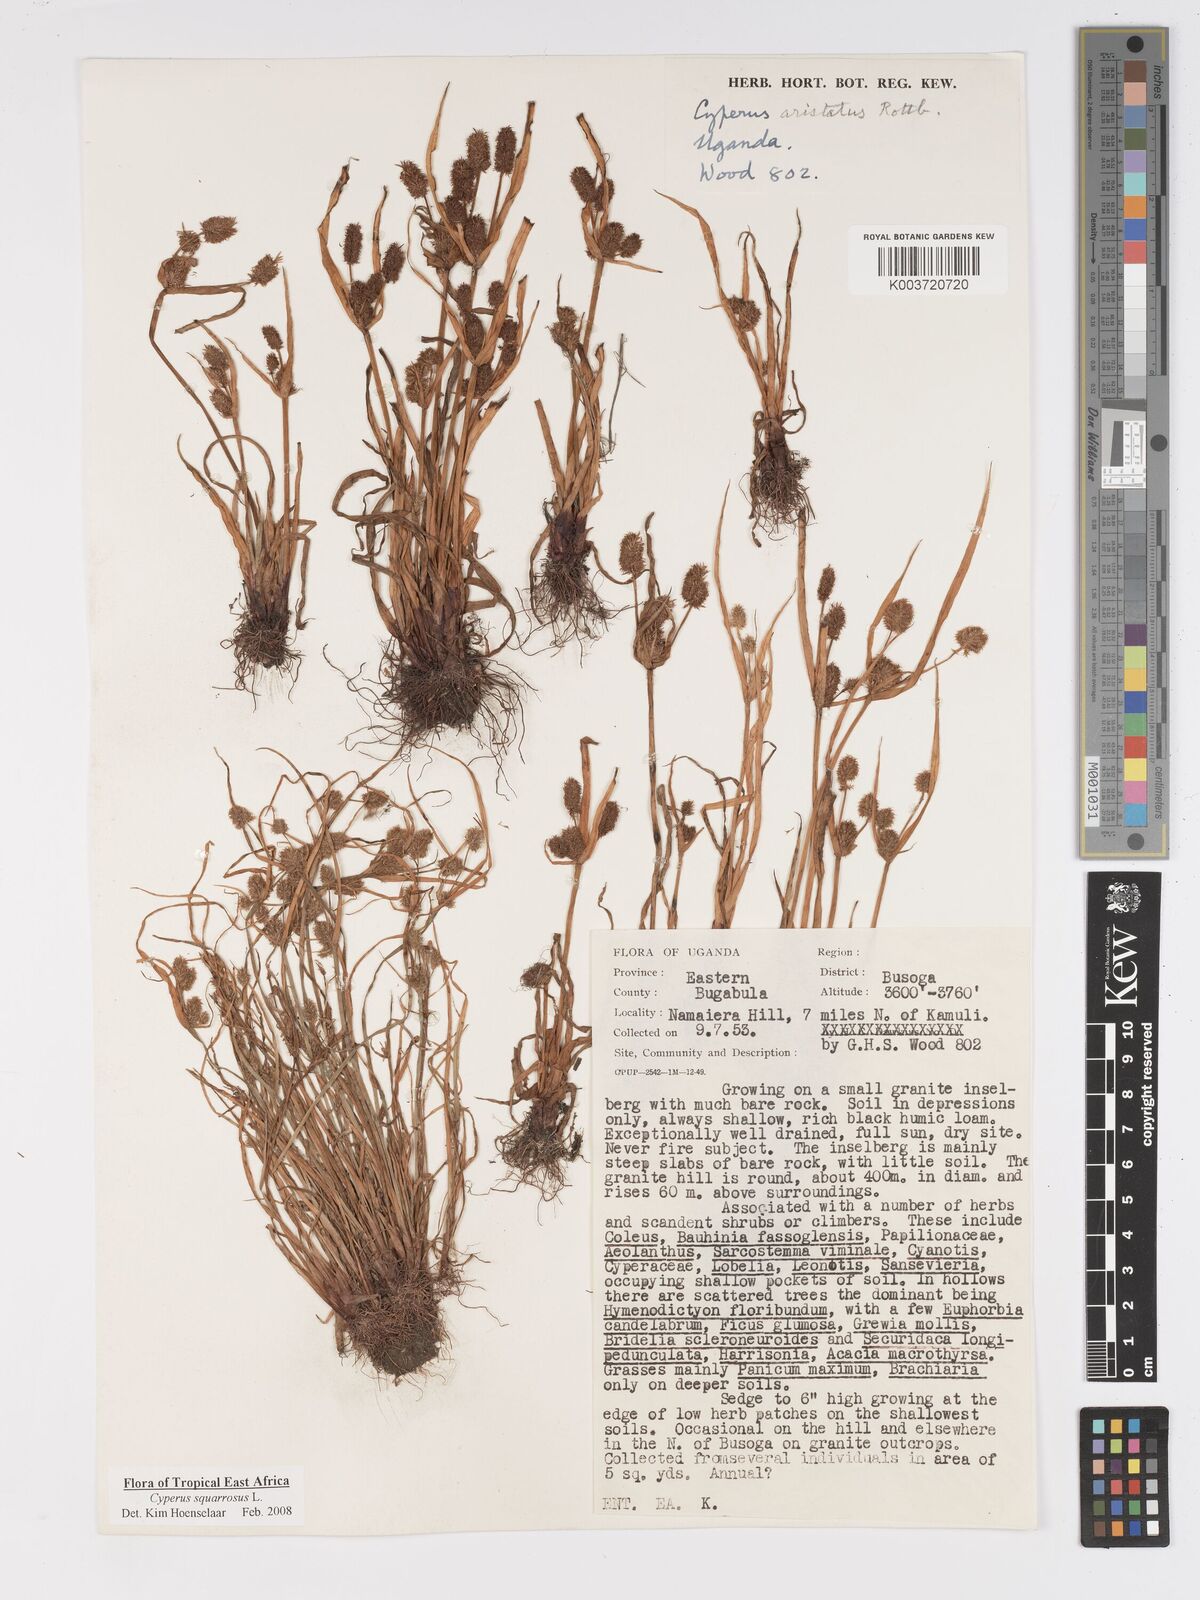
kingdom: Plantae
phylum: Tracheophyta
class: Liliopsida
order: Poales
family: Cyperaceae
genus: Cyperus
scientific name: Cyperus squarrosus
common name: Awned cyperus
